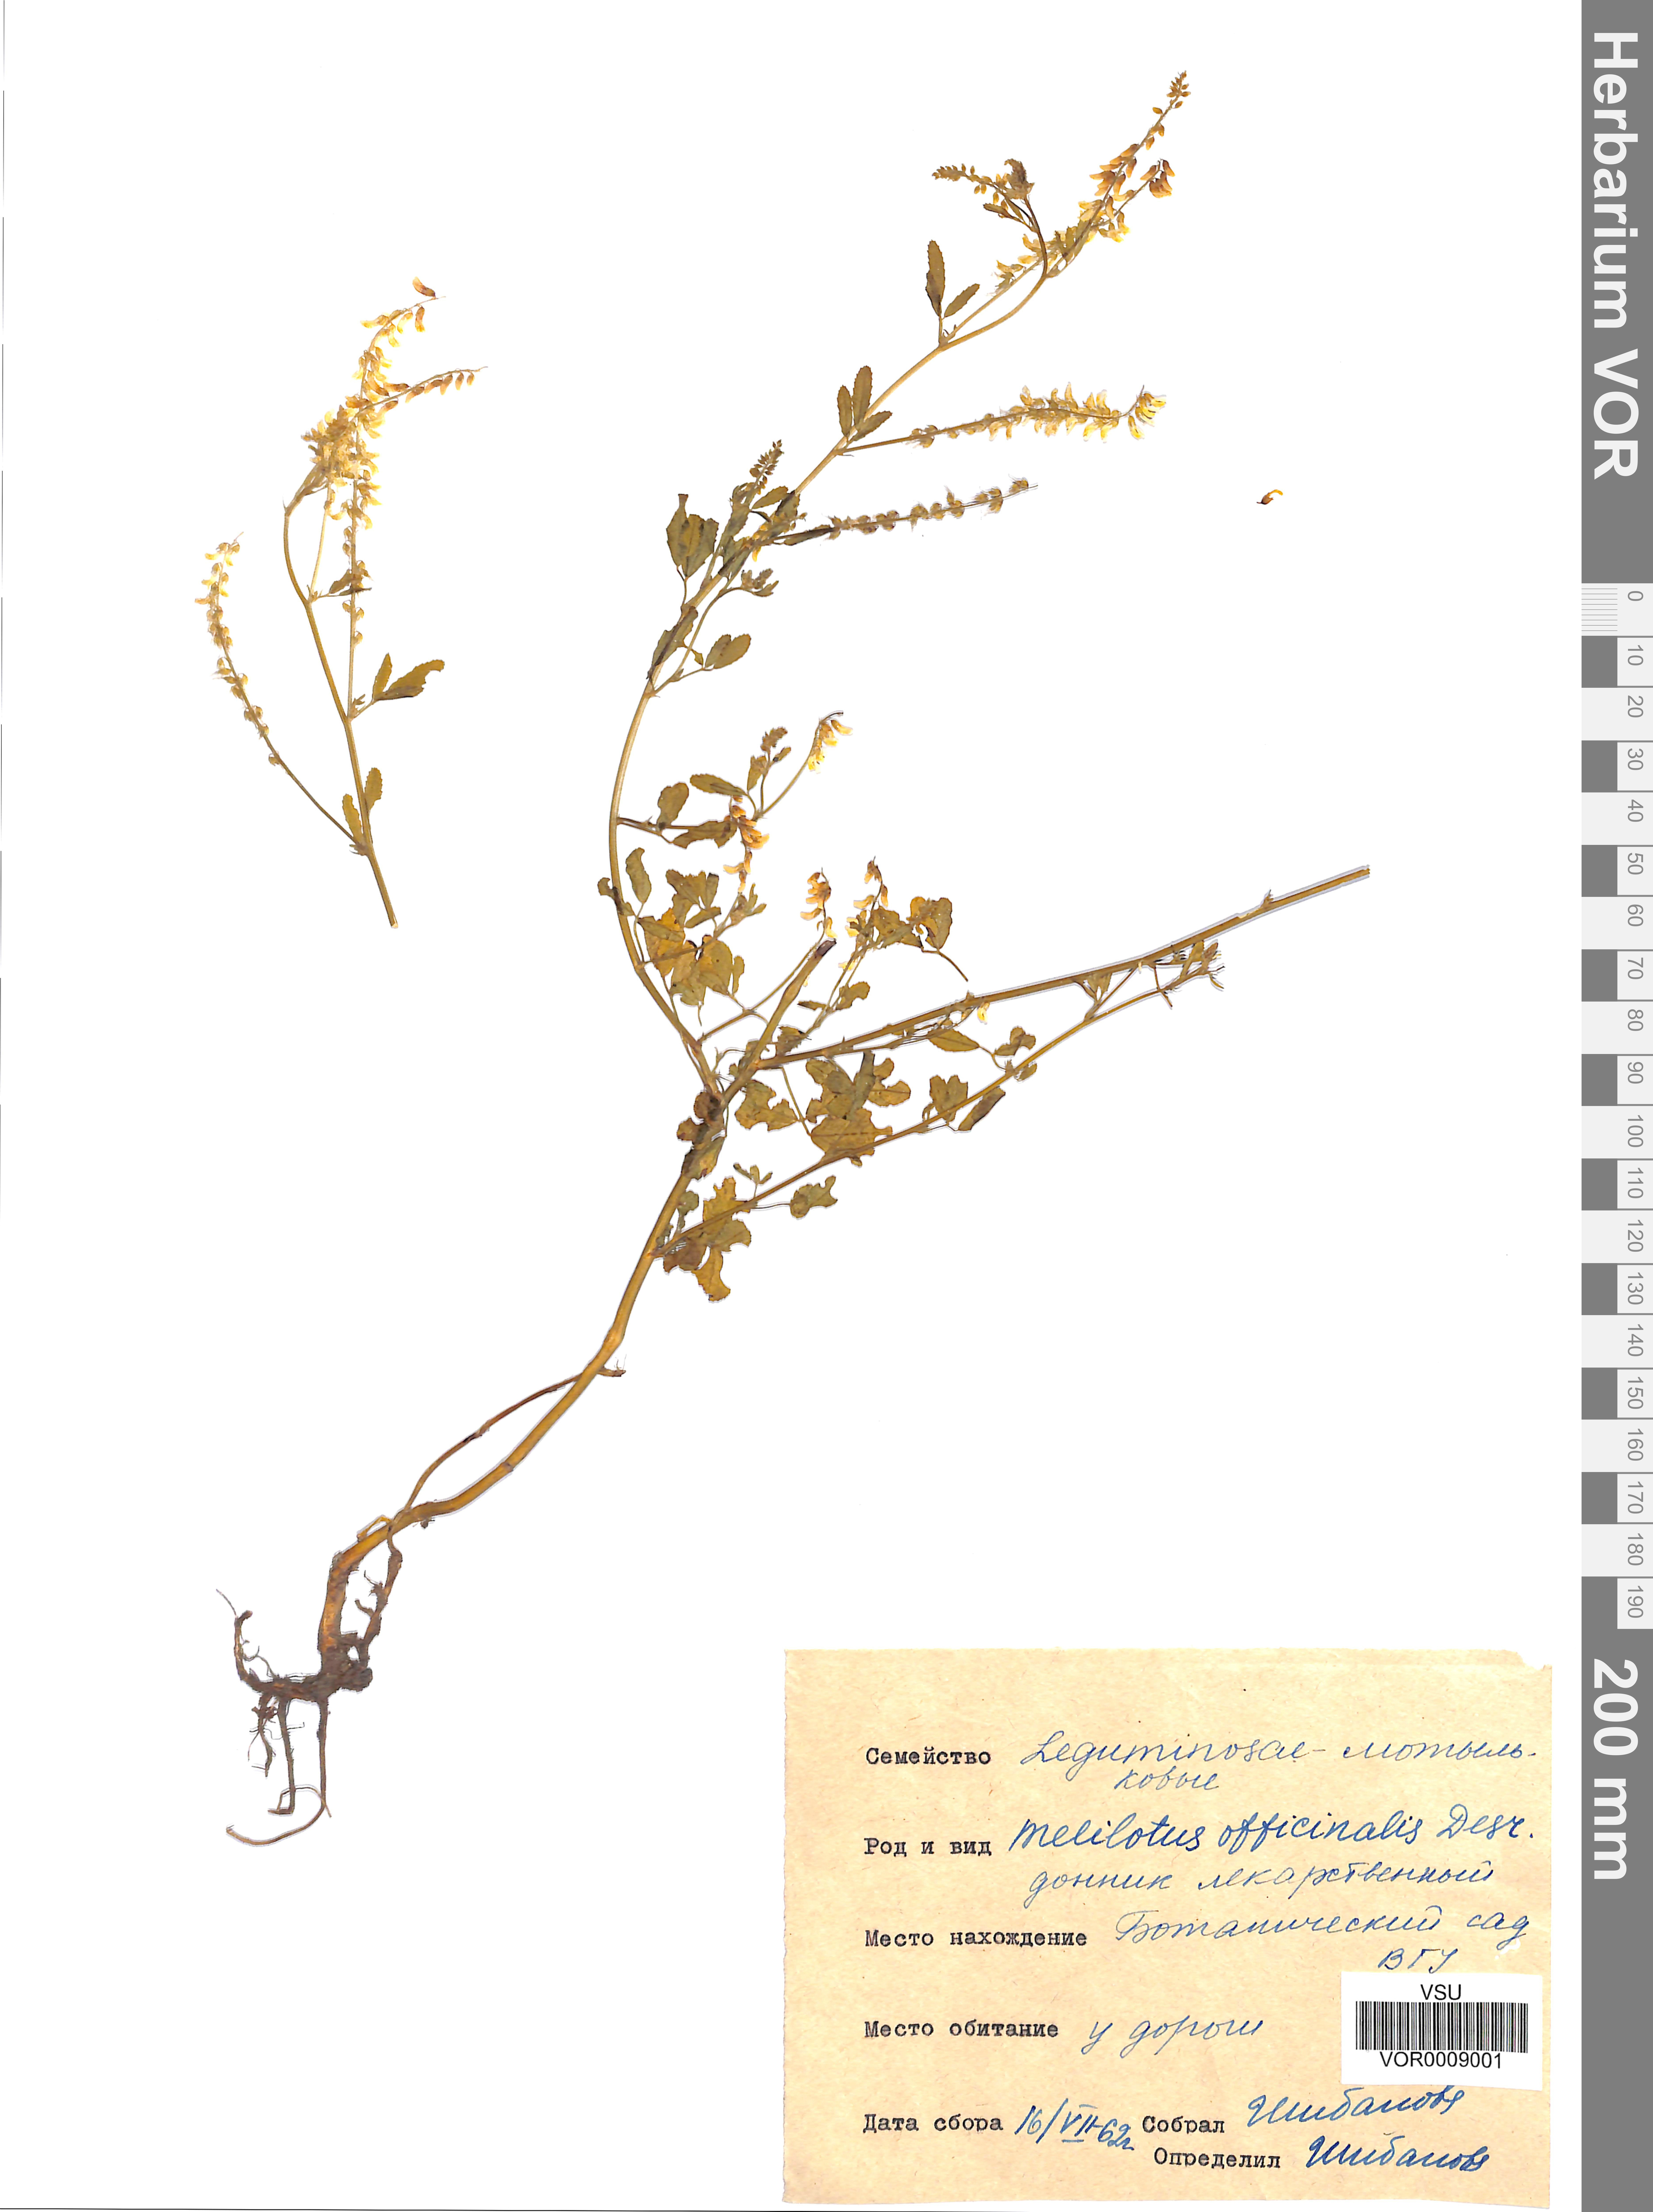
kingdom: Plantae
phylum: Tracheophyta
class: Magnoliopsida
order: Fabales
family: Fabaceae
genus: Melilotus
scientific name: Melilotus officinalis
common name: Sweetclover
